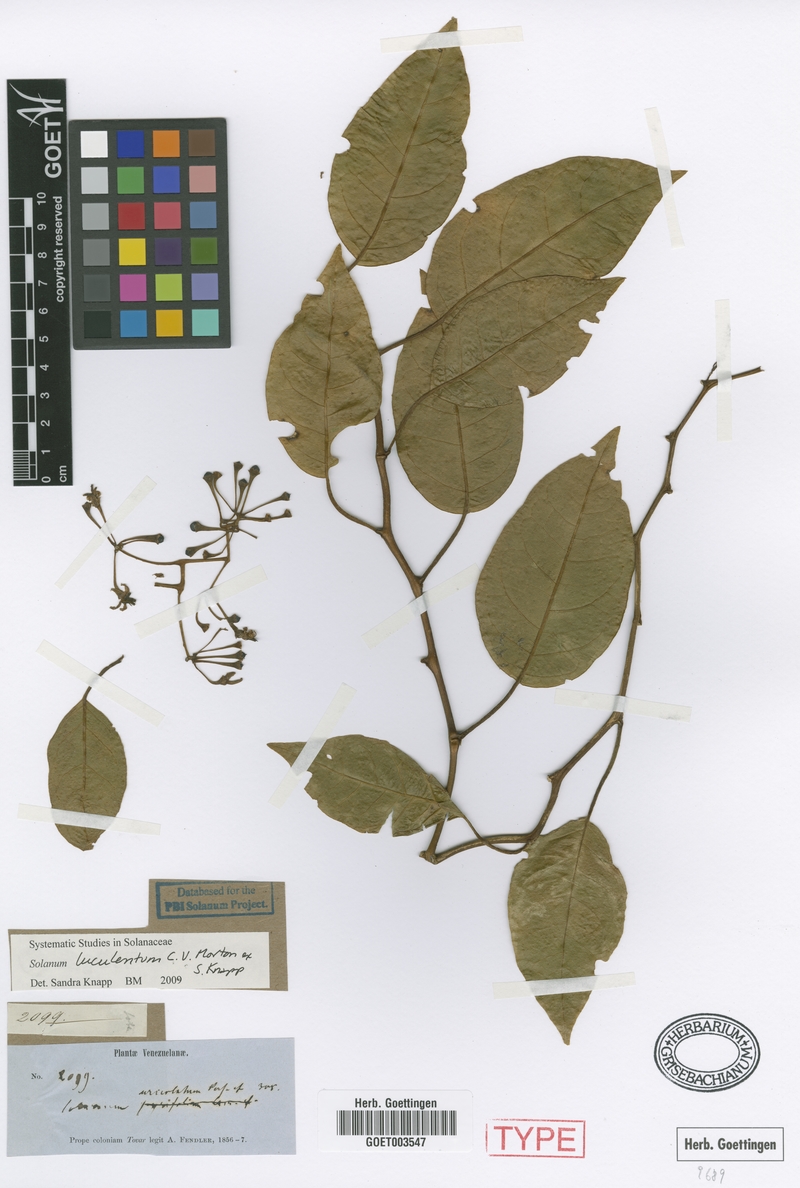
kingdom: Plantae
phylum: Tracheophyta
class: Magnoliopsida
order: Solanales
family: Solanaceae
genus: Solanum
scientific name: Solanum luculentum
